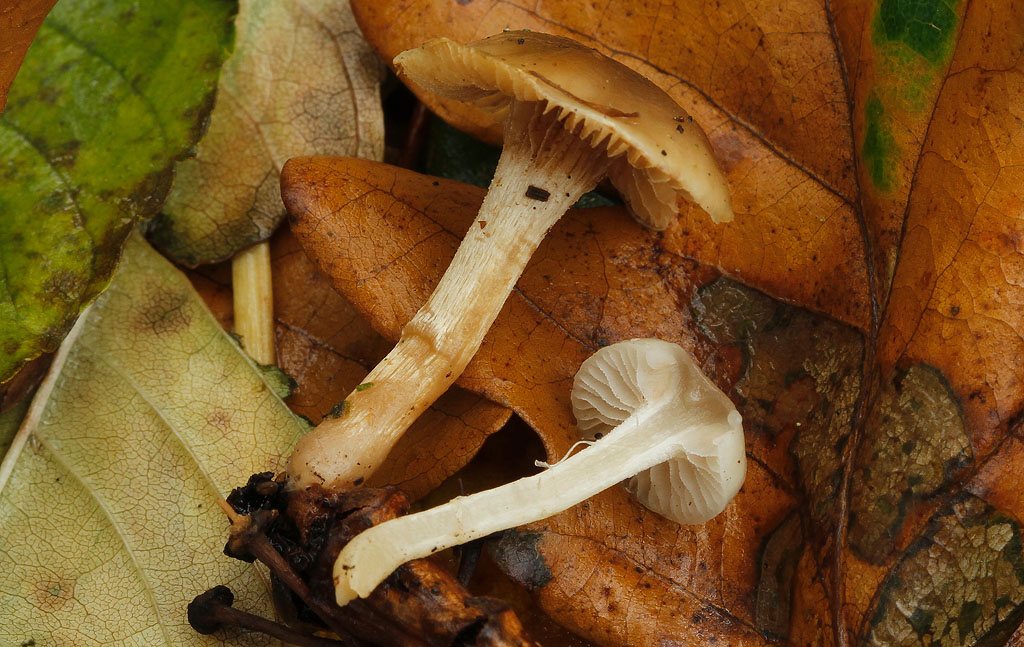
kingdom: Fungi
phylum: Basidiomycota
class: Agaricomycetes
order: Agaricales
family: Strophariaceae
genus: Meottomyces
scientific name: Meottomyces dissimulans
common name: smudsigbrun vinterskælhat
